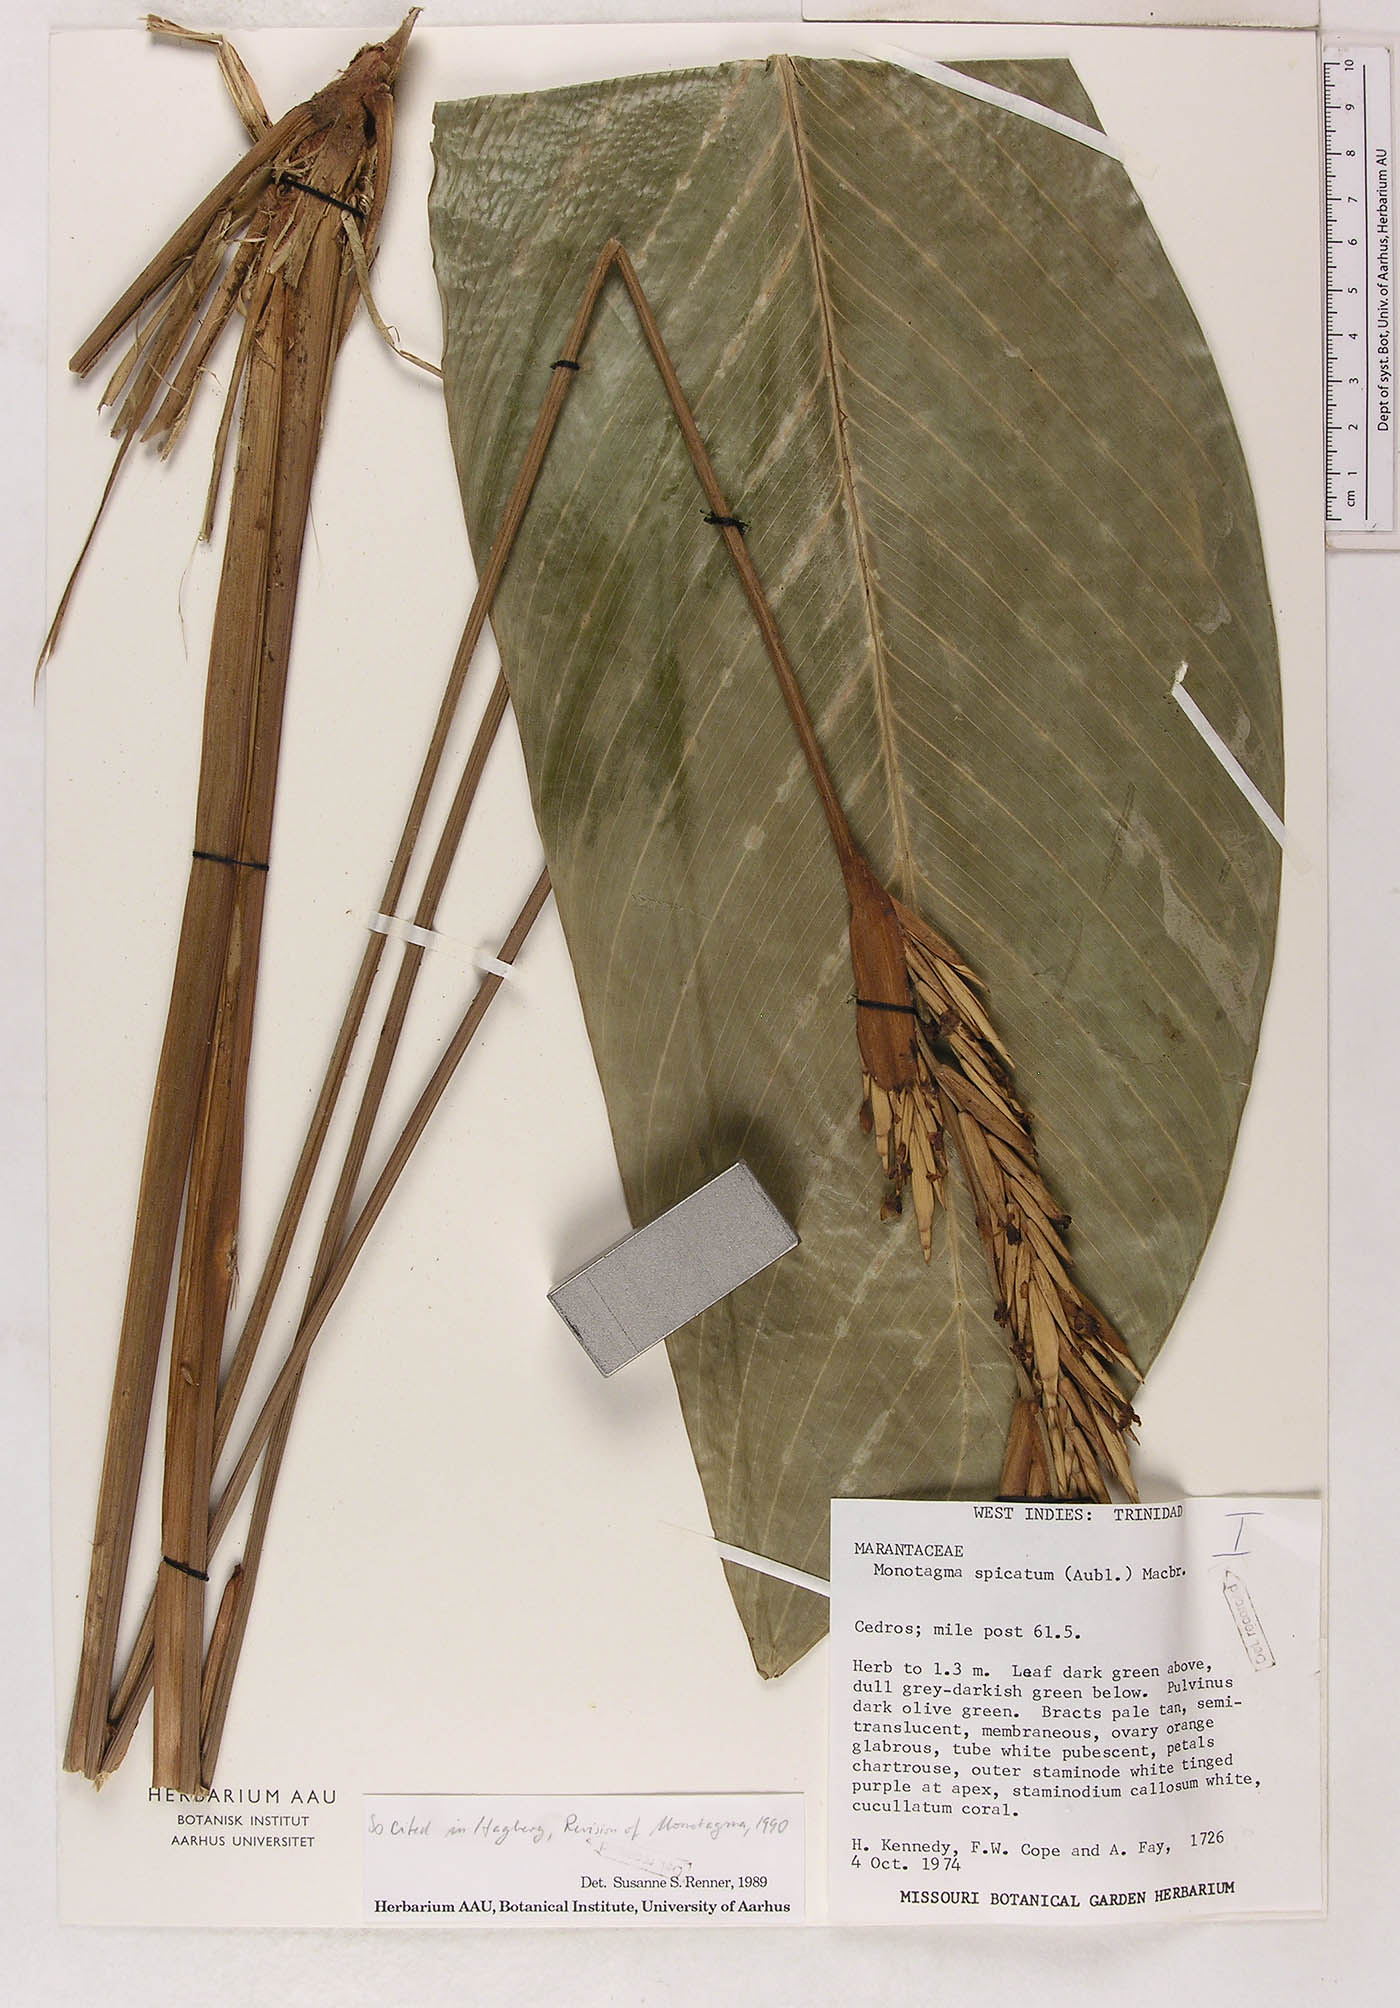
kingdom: Plantae
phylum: Tracheophyta
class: Liliopsida
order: Zingiberales
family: Marantaceae
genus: Monotagma
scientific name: Monotagma spicatum
